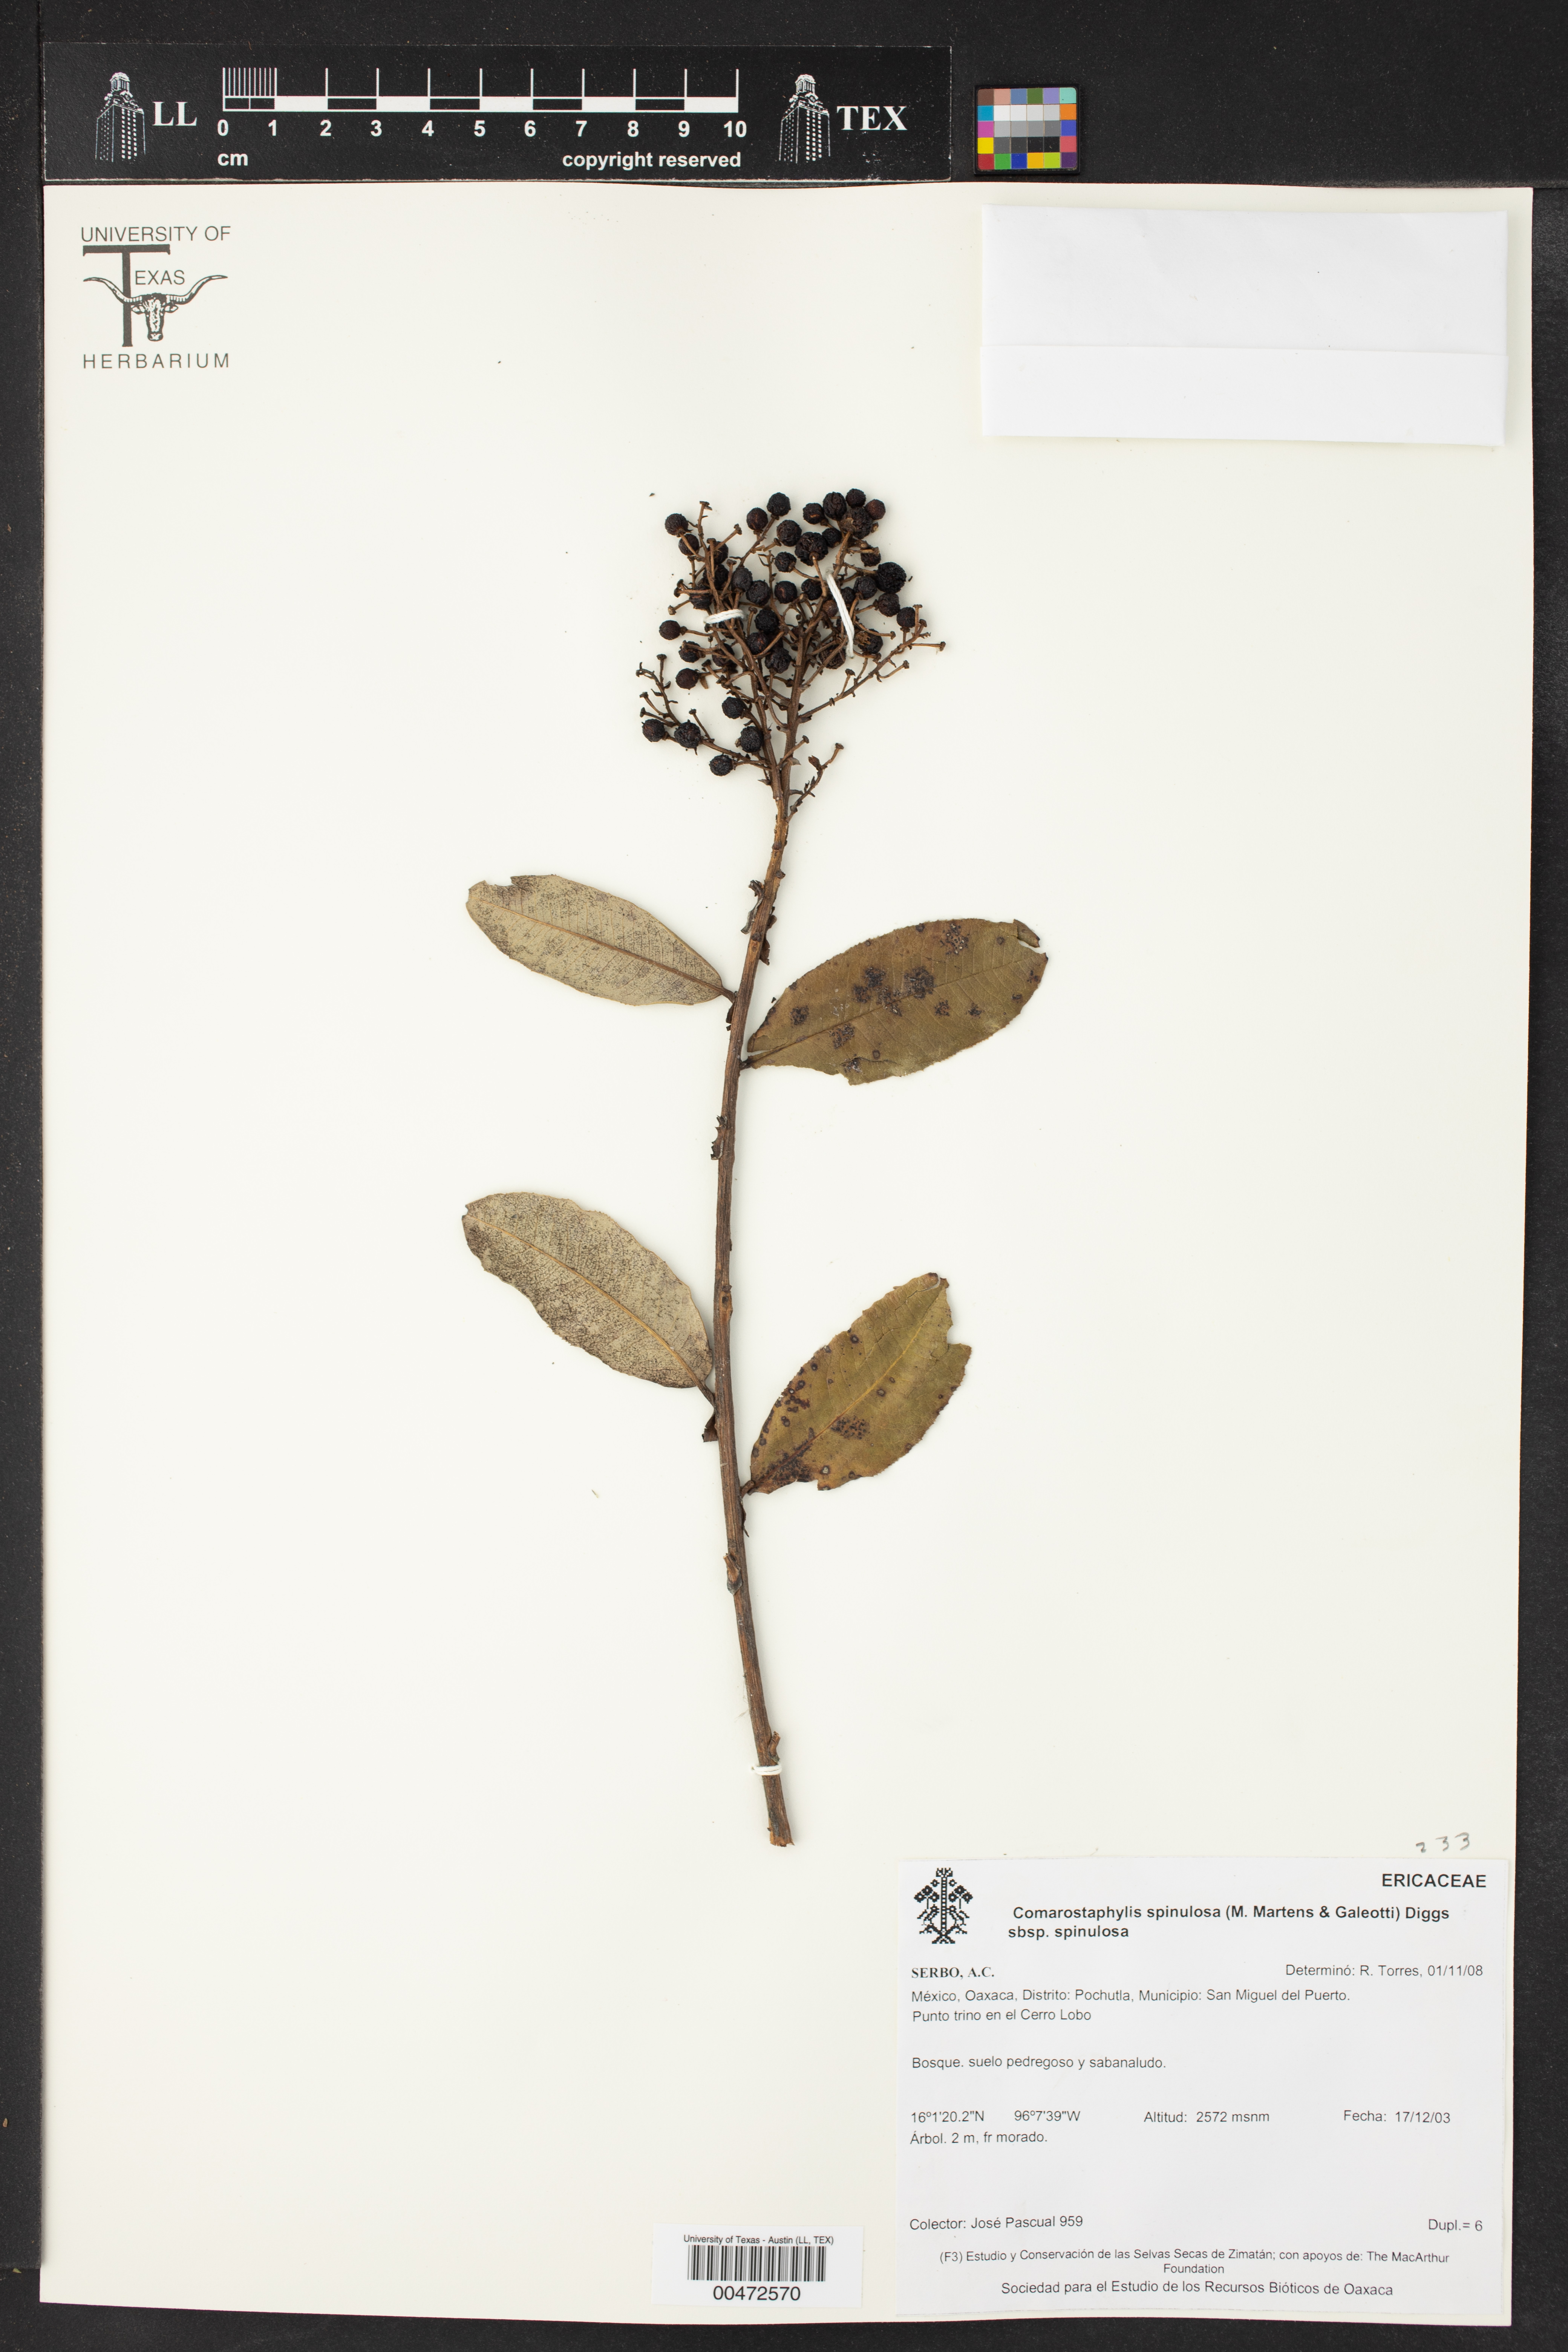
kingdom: Plantae
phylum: Tracheophyta
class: Magnoliopsida
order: Ericales
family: Ericaceae
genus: Comarostaphylis
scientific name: Comarostaphylis spinulosa
